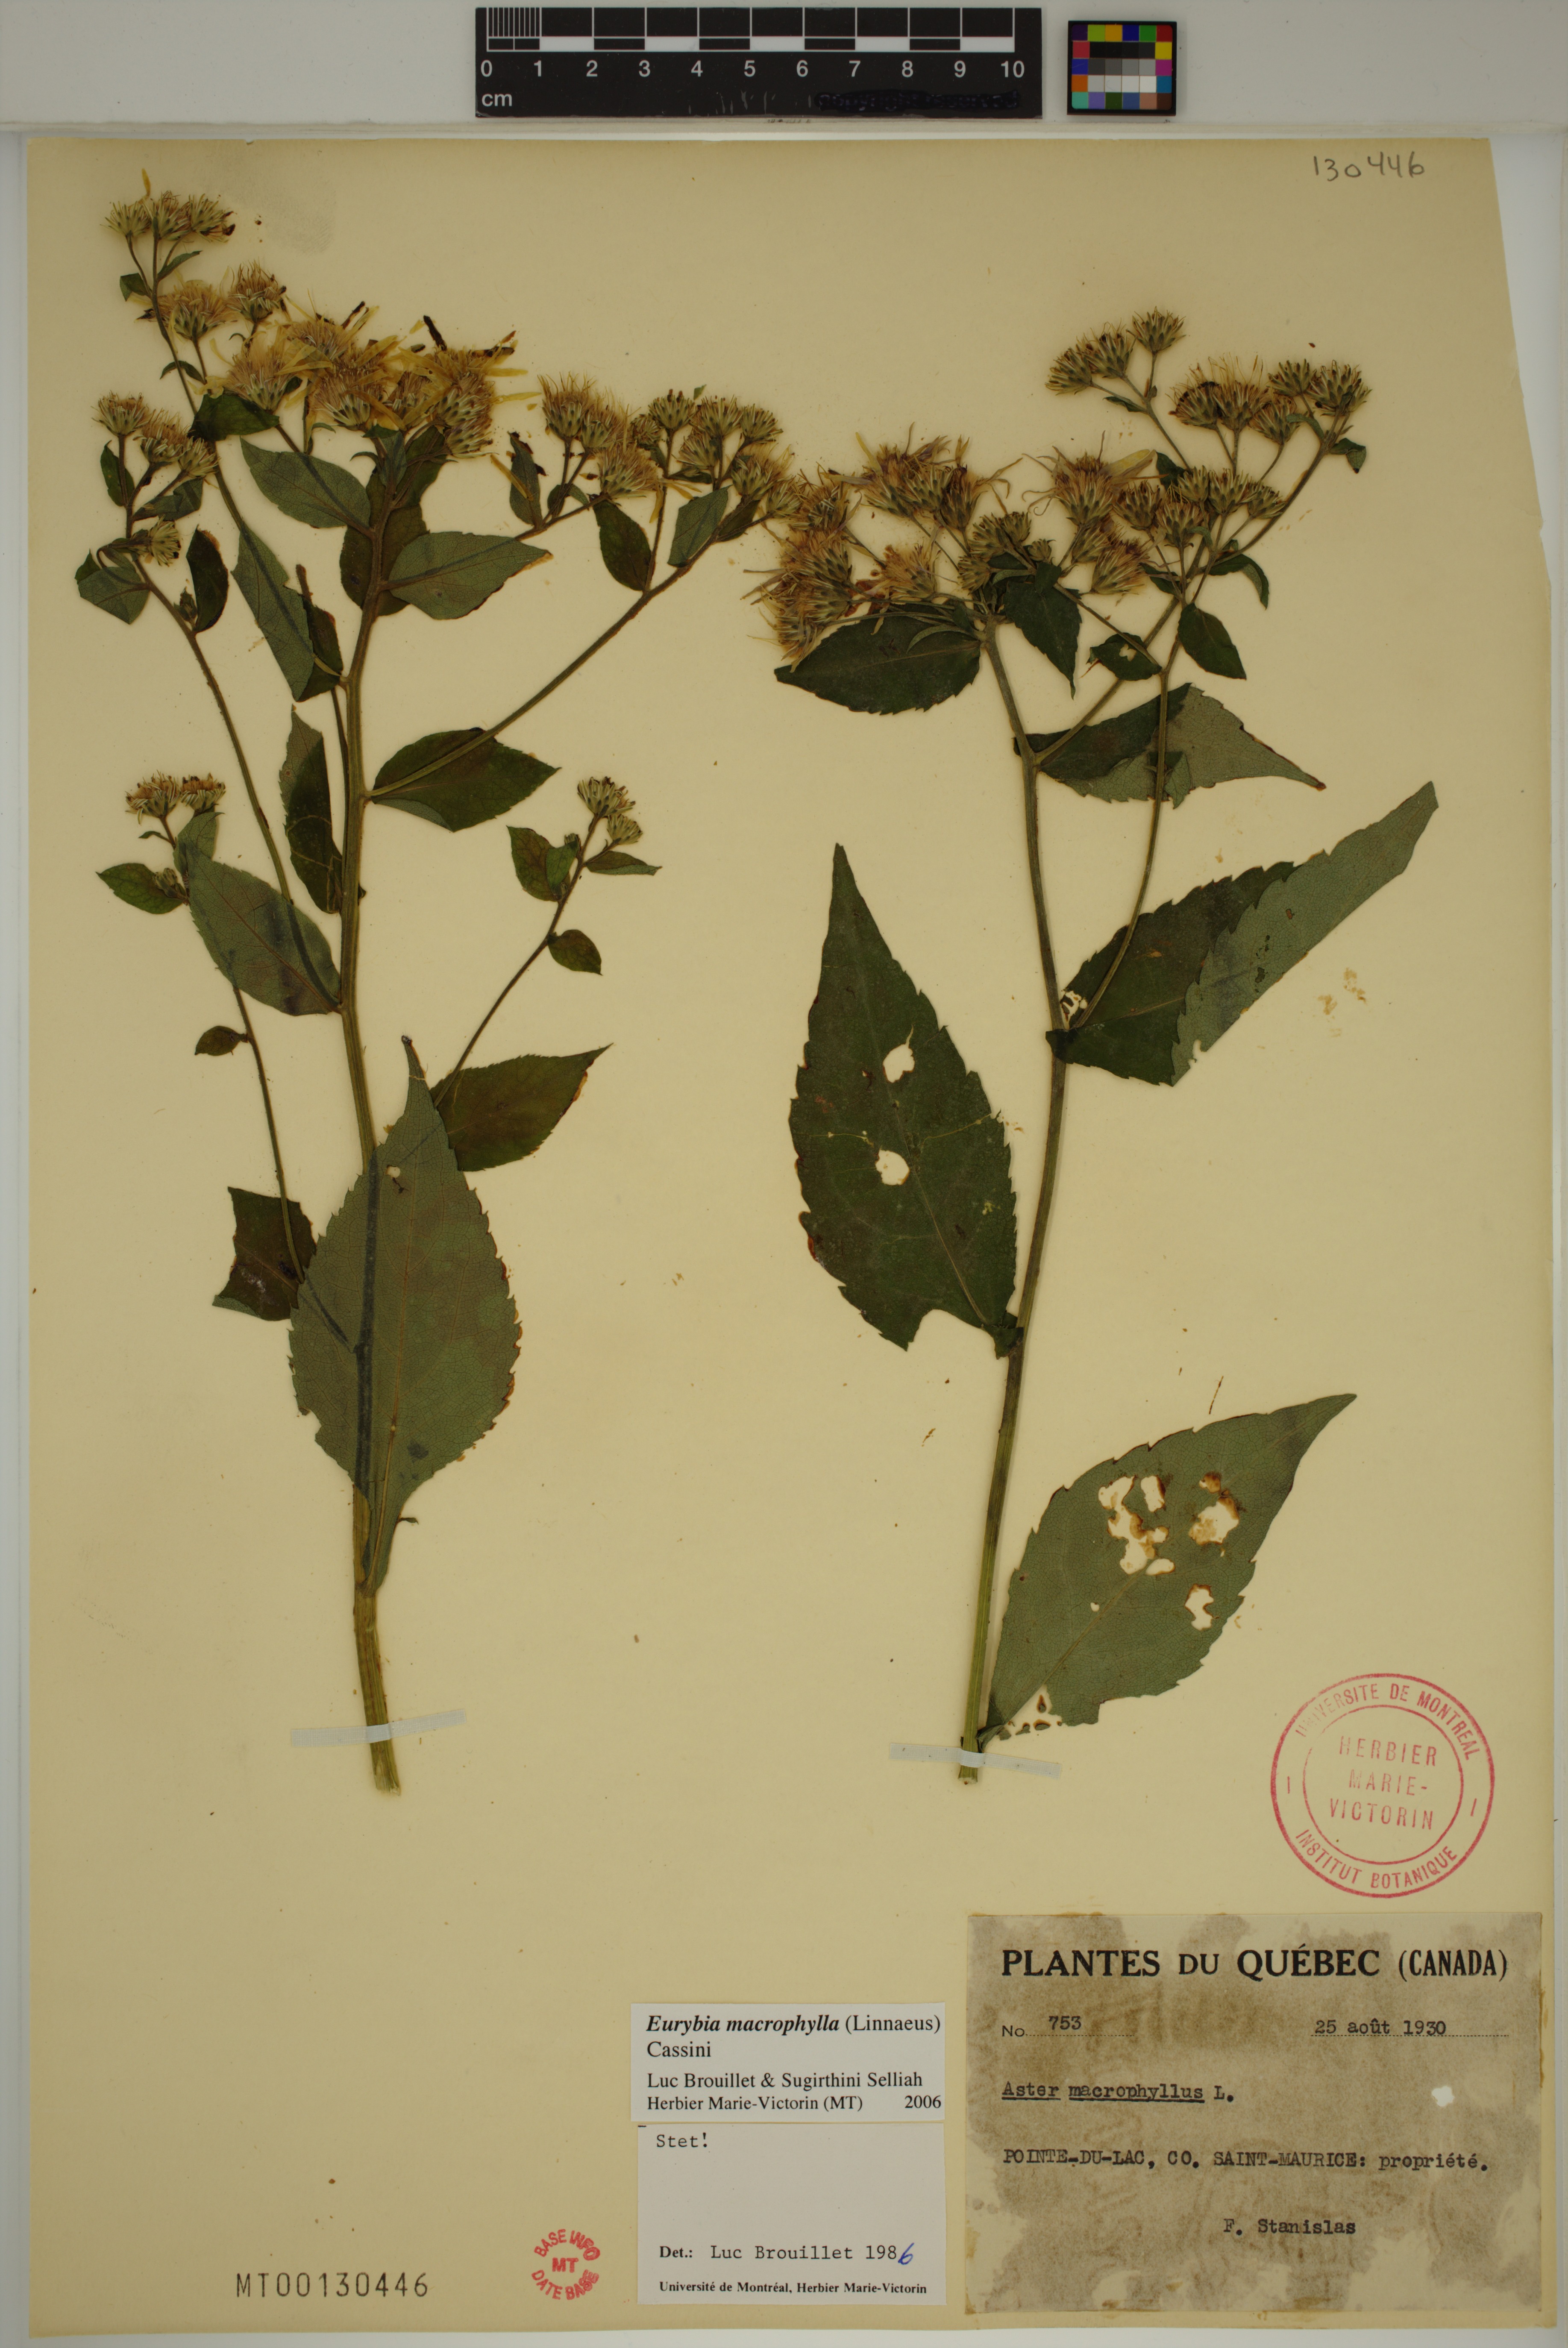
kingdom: Plantae
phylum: Tracheophyta
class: Magnoliopsida
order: Asterales
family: Asteraceae
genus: Eurybia
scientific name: Eurybia macrophylla
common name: Big-leaved aster
